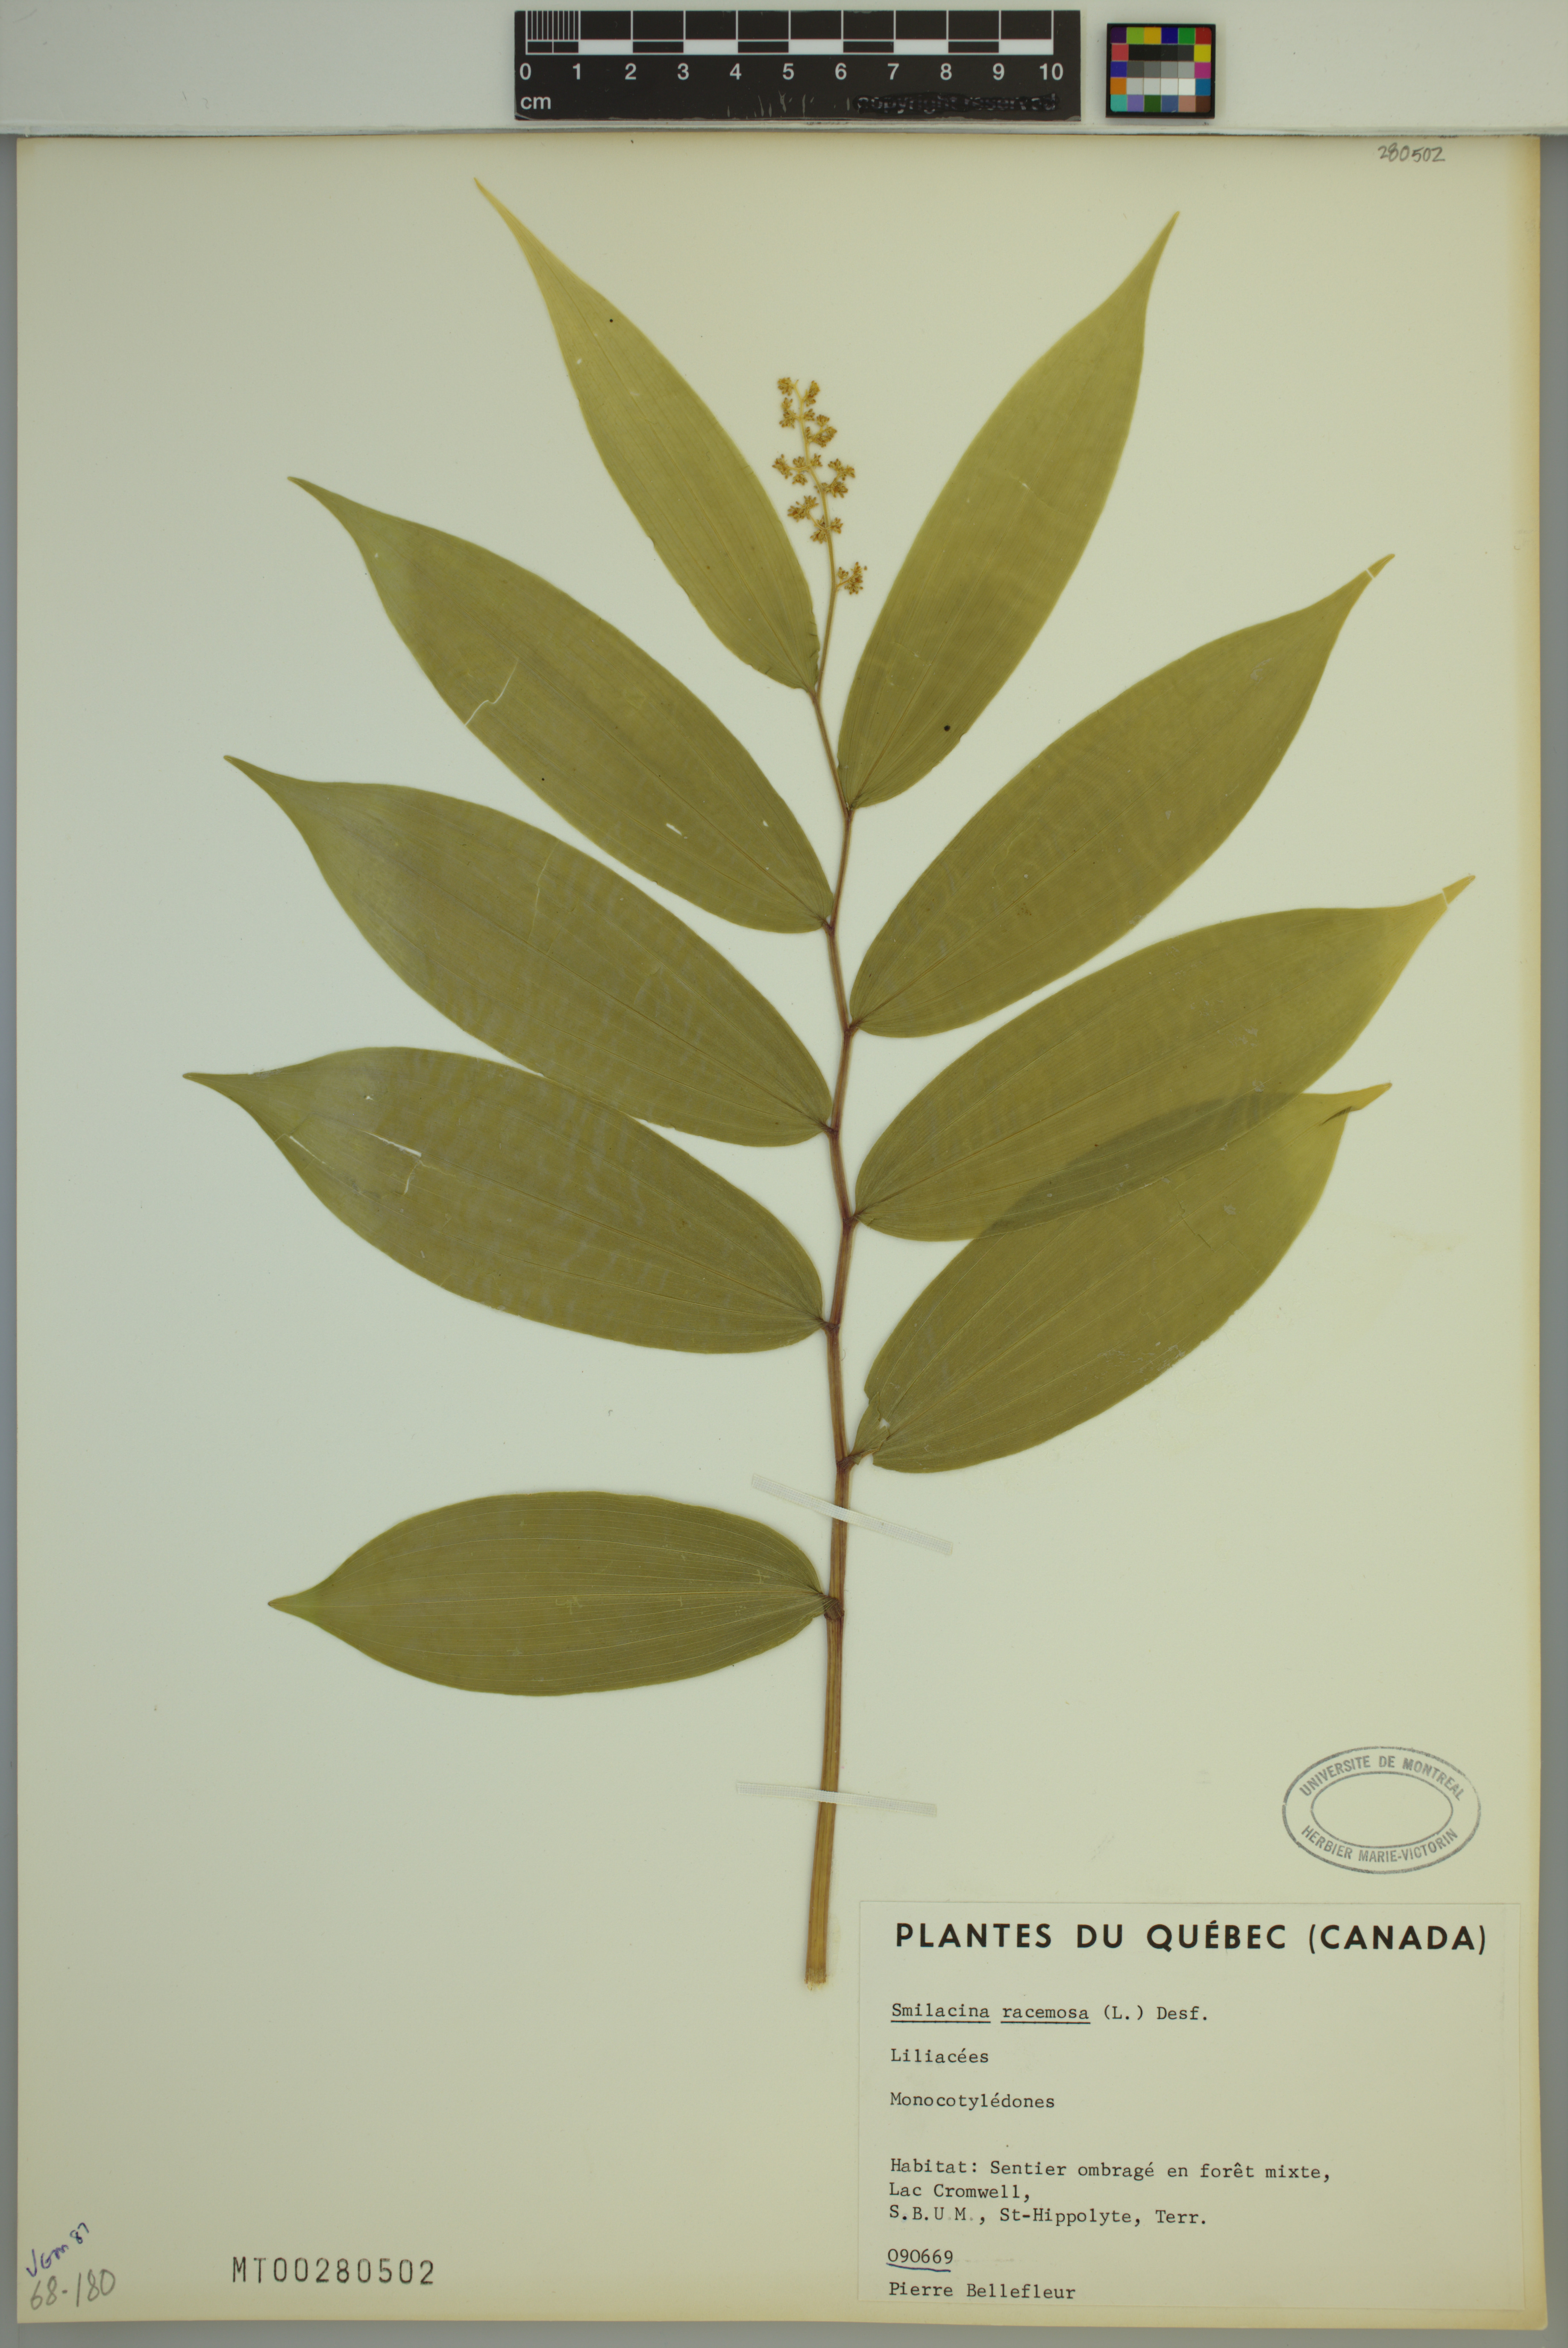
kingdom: Plantae
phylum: Tracheophyta
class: Liliopsida
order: Asparagales
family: Asparagaceae
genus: Maianthemum
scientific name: Maianthemum racemosum
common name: False spikenard
